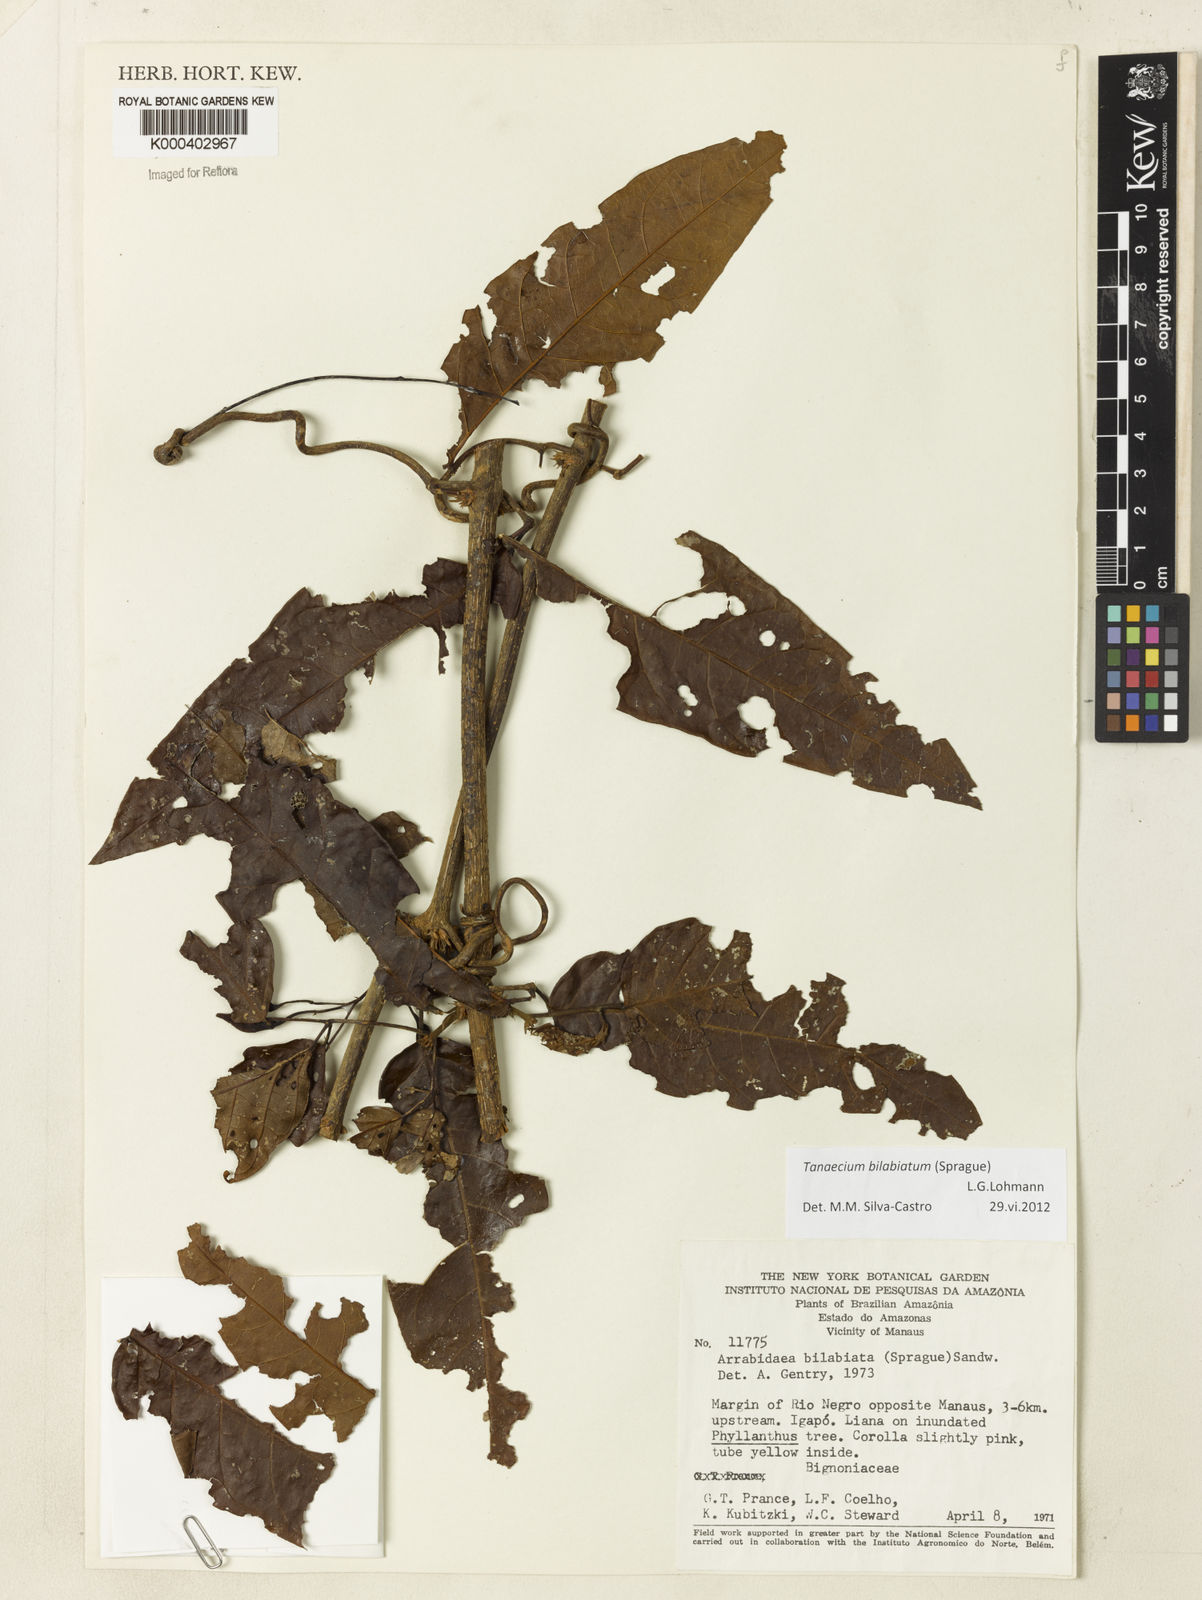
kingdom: Plantae
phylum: Tracheophyta
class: Magnoliopsida
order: Lamiales
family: Bignoniaceae
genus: Tanaecium
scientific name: Tanaecium bilabiatum
